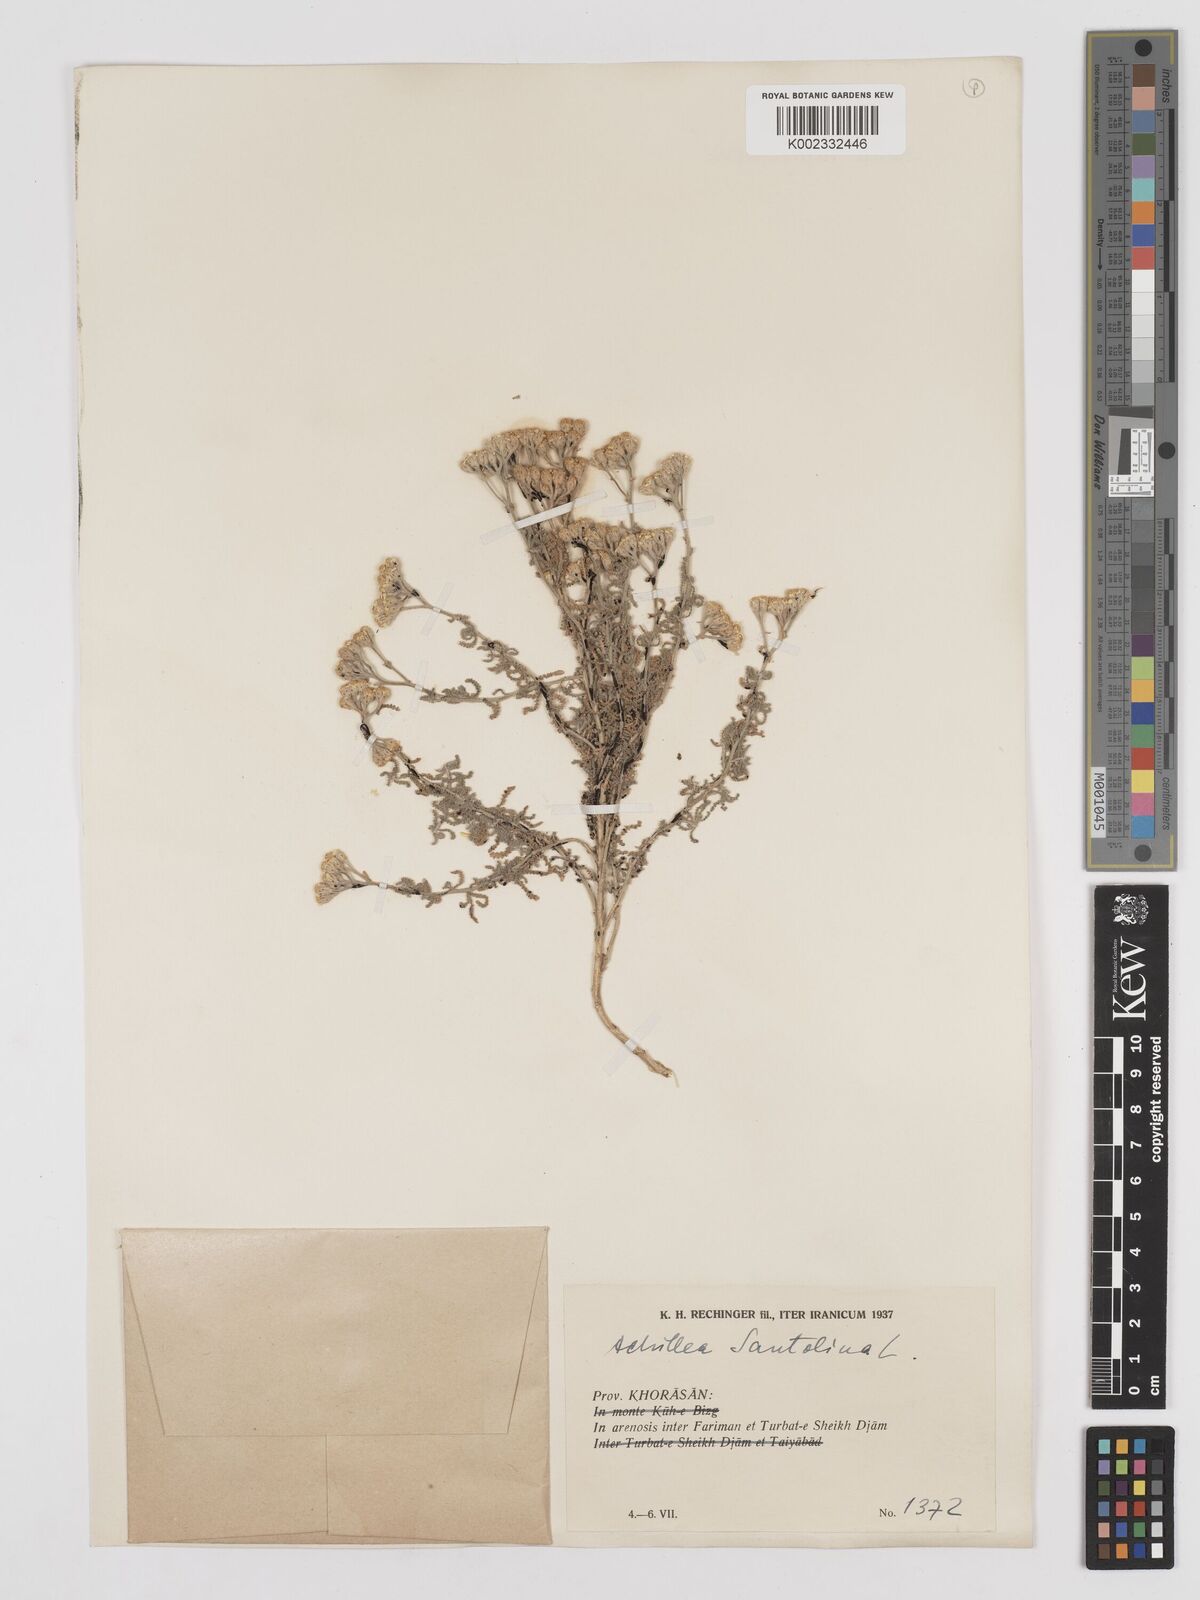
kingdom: Plantae
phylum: Tracheophyta
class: Magnoliopsida
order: Asterales
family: Asteraceae
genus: Achillea
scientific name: Achillea tenuifolia
